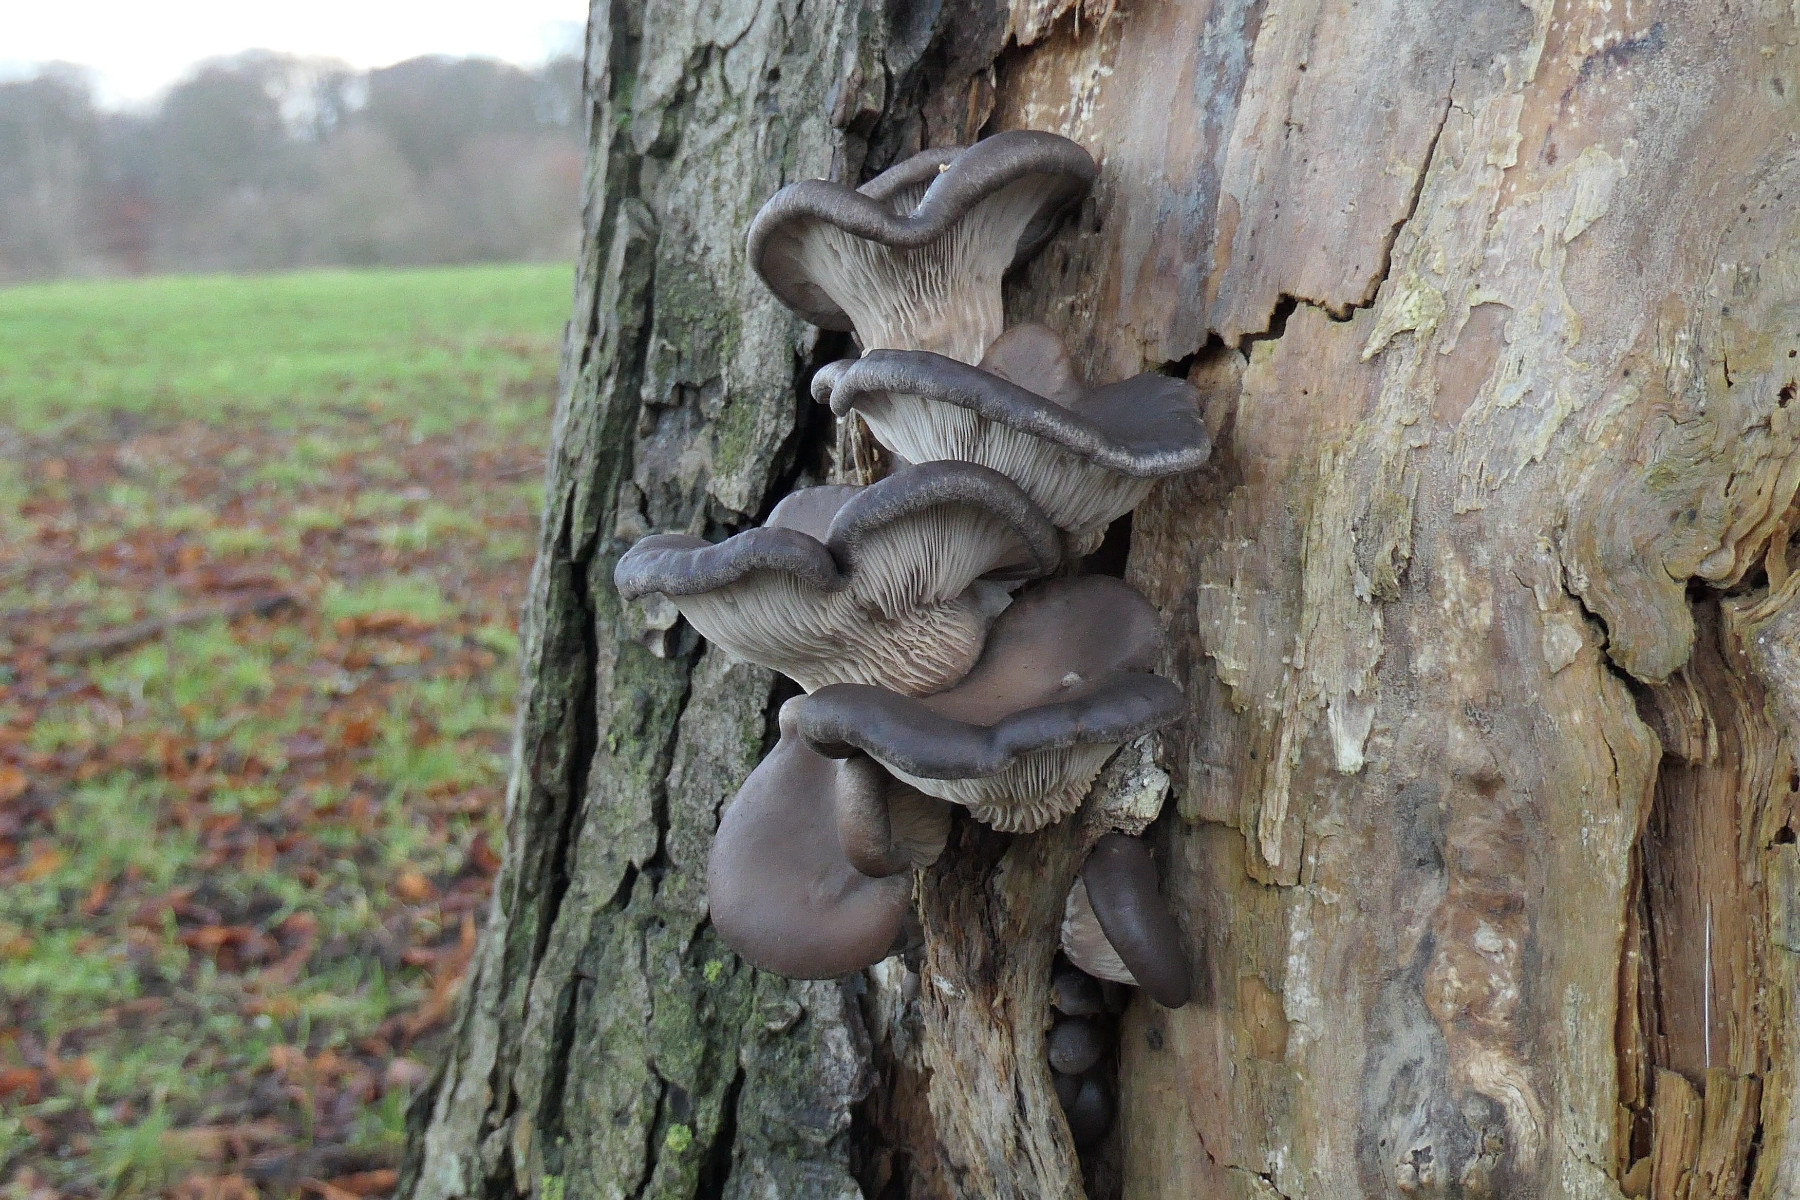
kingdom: Fungi
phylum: Basidiomycota
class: Agaricomycetes
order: Agaricales
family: Pleurotaceae
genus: Pleurotus
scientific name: Pleurotus ostreatus
